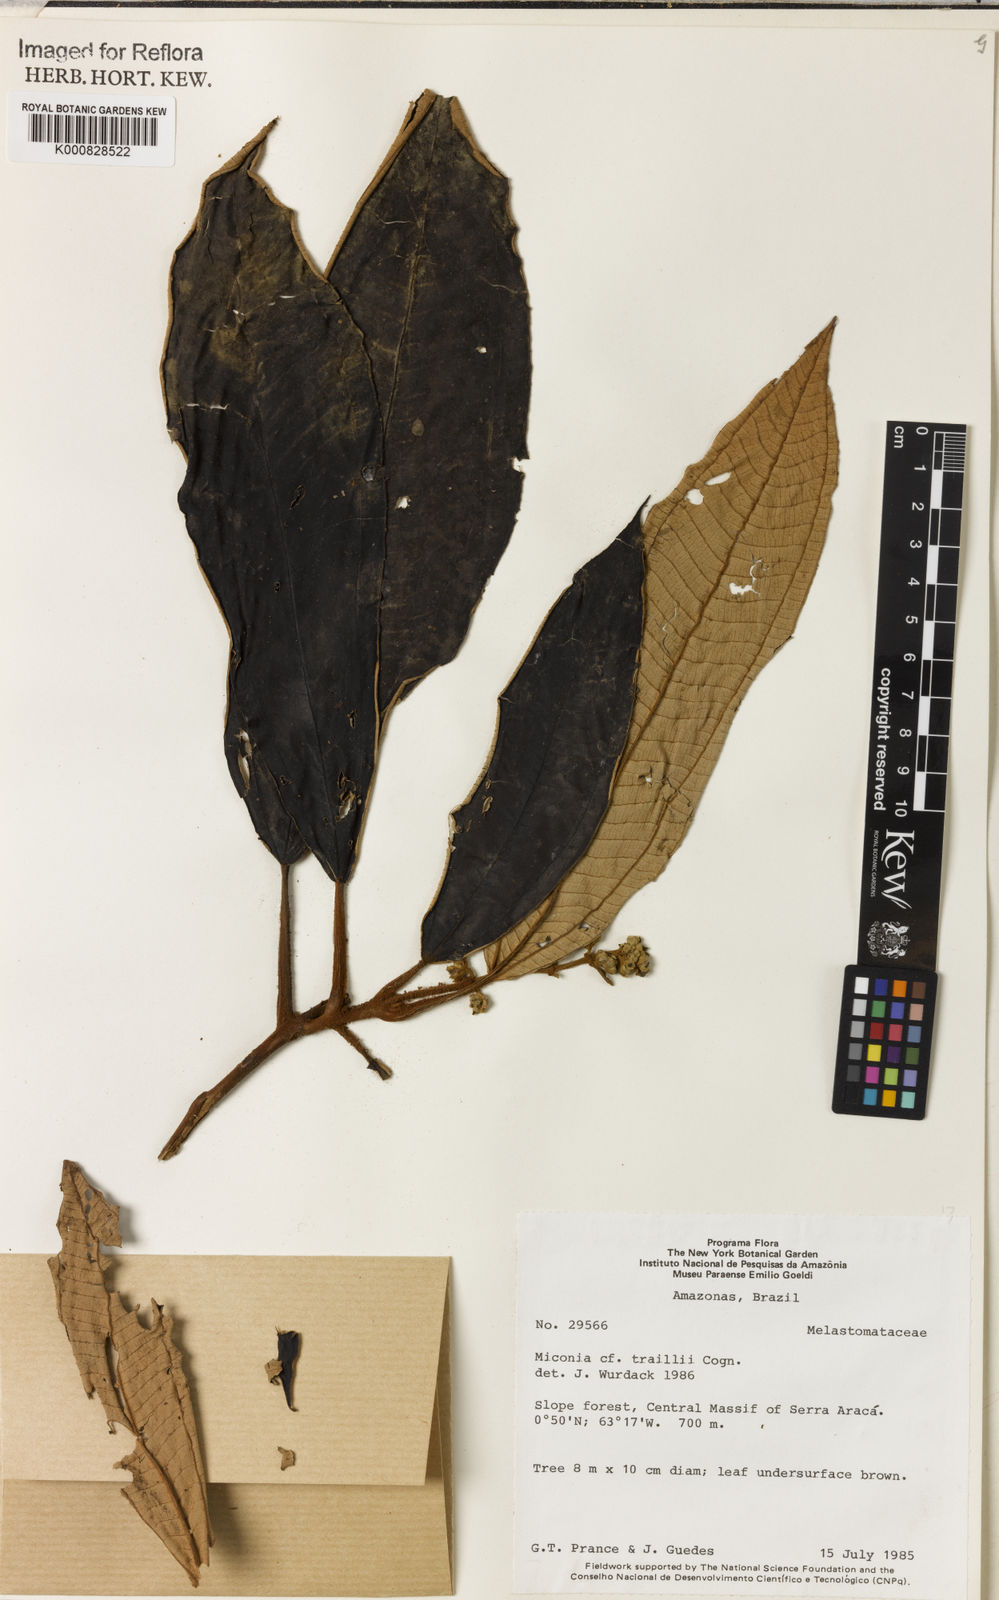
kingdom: Plantae
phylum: Tracheophyta
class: Magnoliopsida
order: Myrtales
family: Melastomataceae
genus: Miconia
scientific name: Miconia traillii
